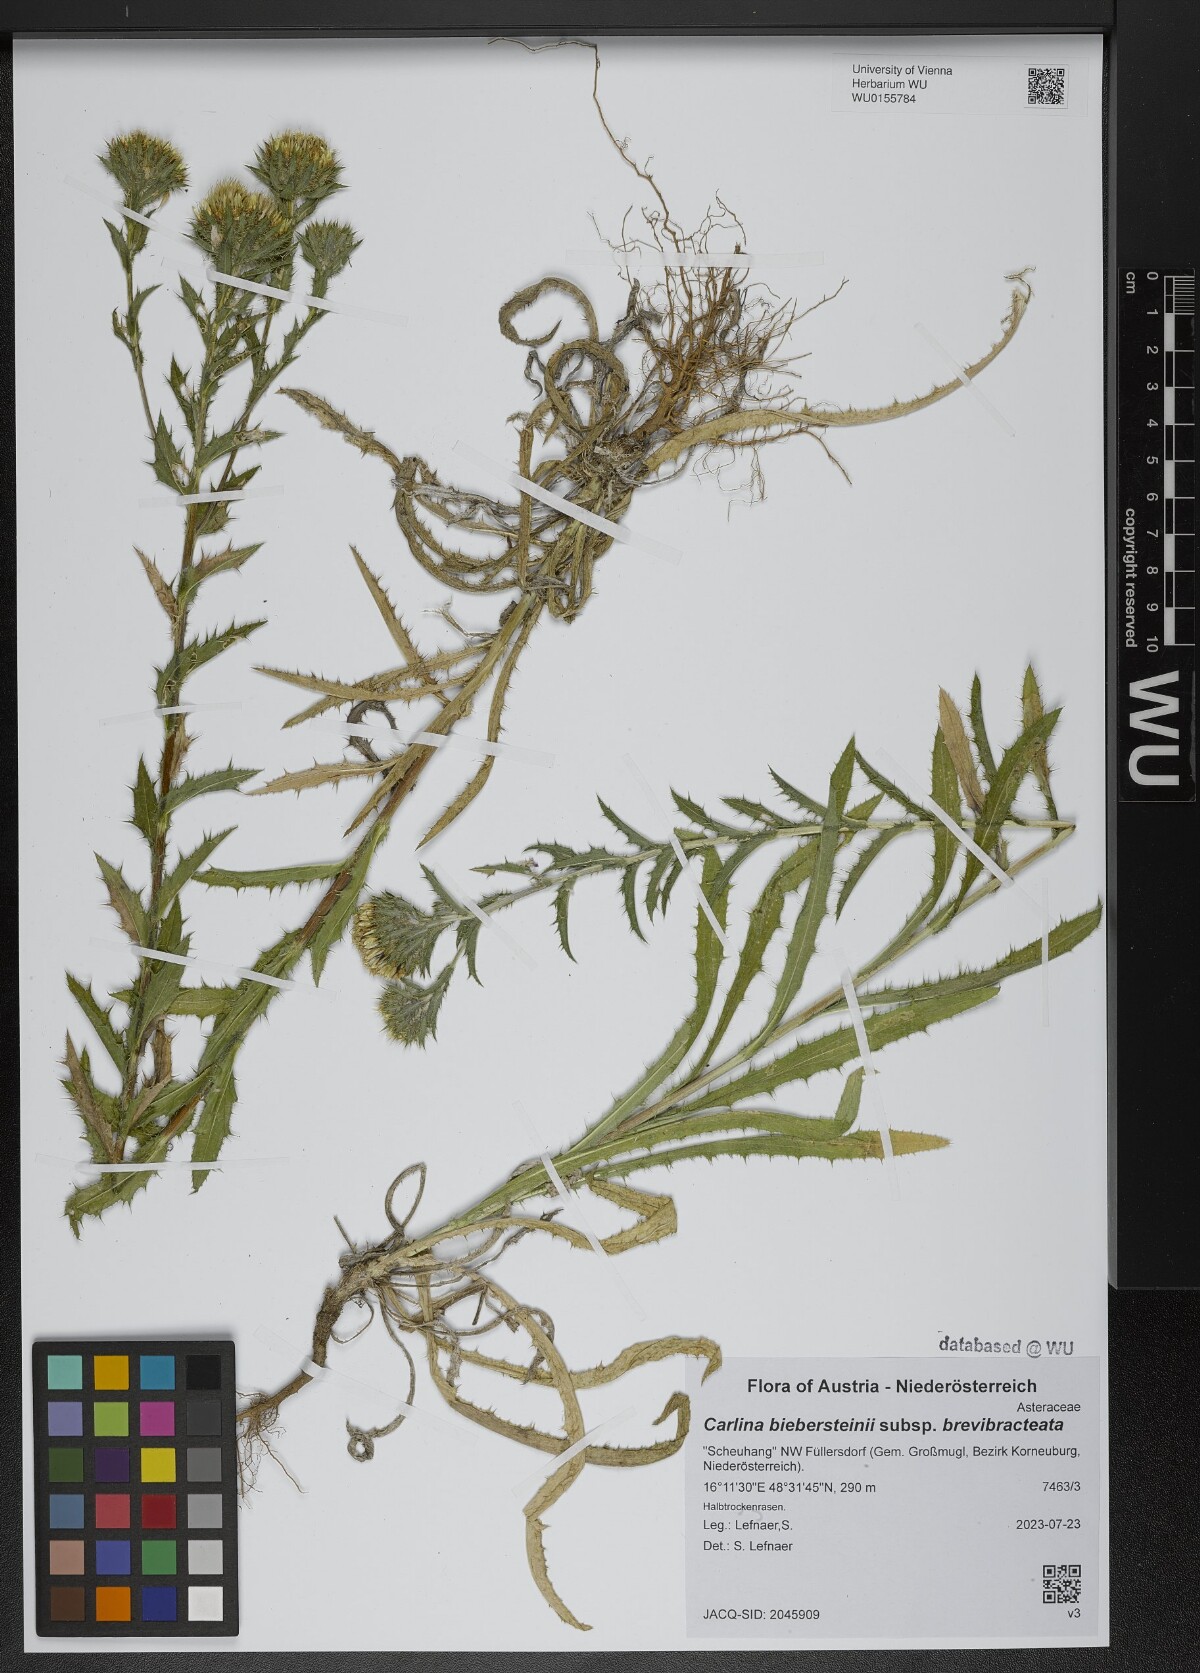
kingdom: Plantae
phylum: Tracheophyta
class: Magnoliopsida
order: Asterales
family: Asteraceae
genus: Carlina
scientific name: Carlina biebersteinii
